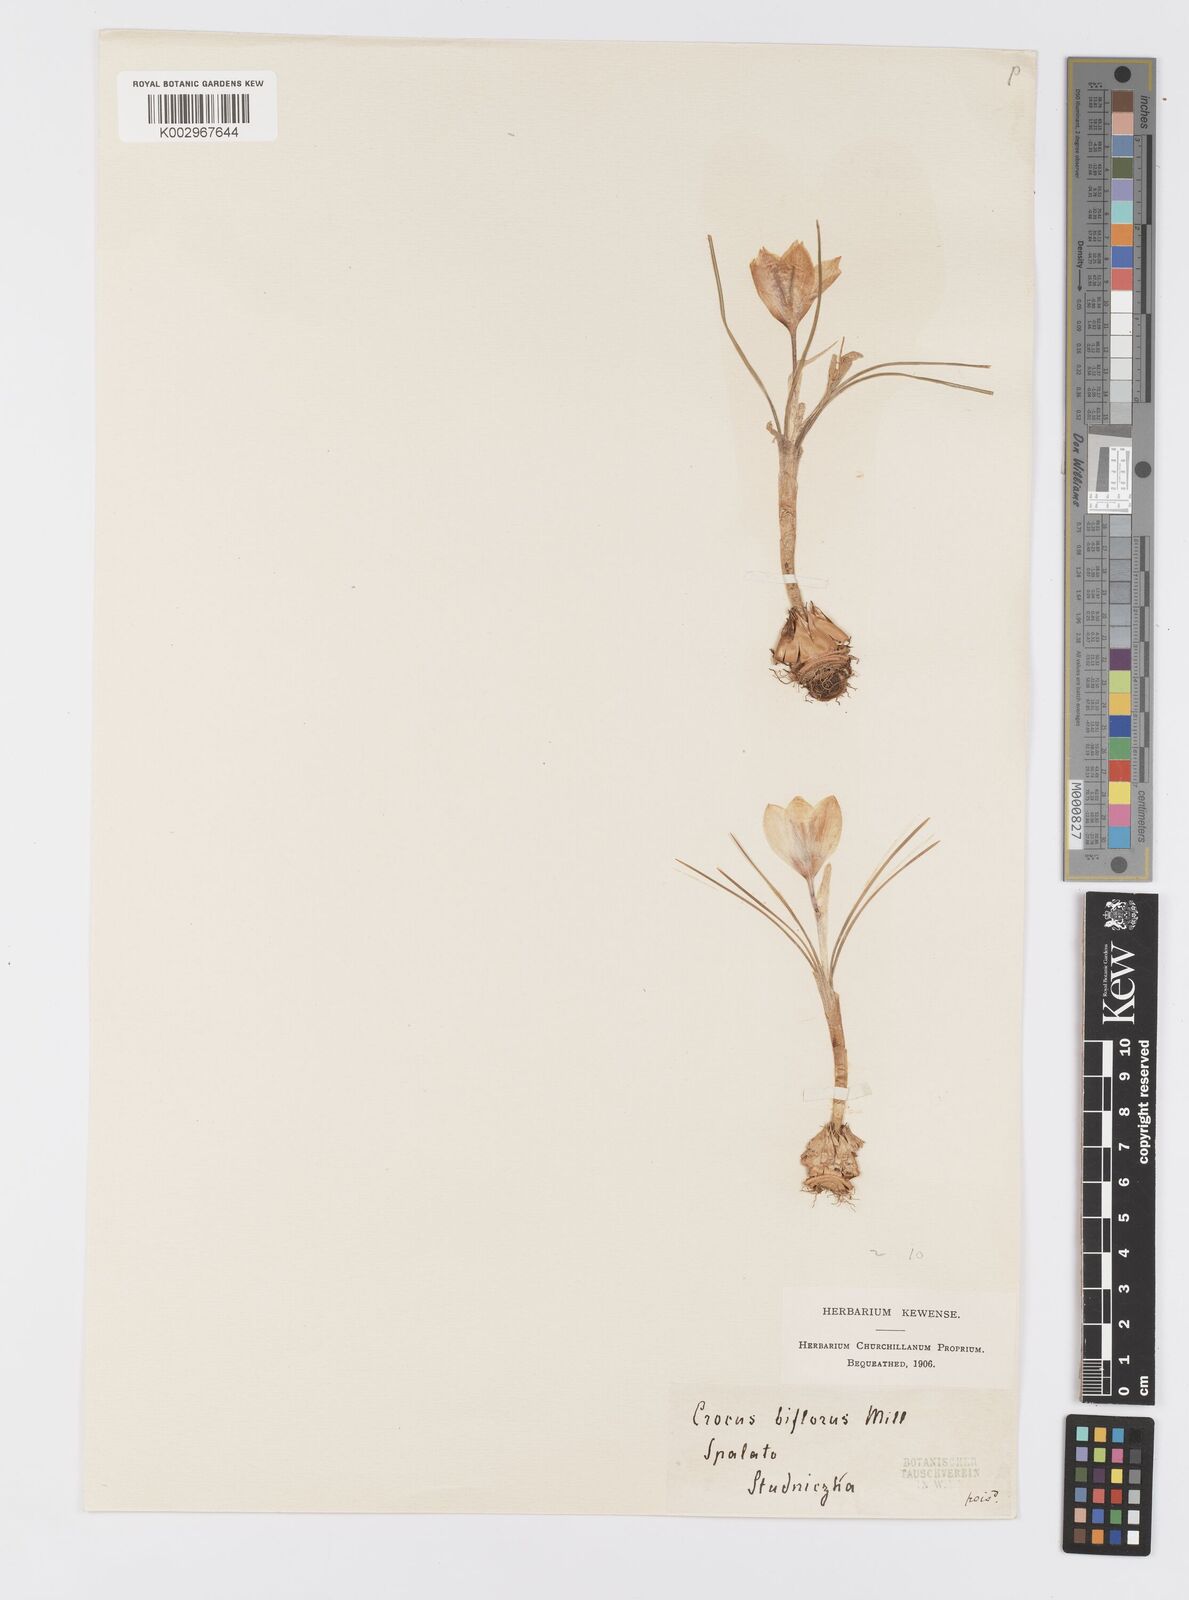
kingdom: Plantae
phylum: Tracheophyta
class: Liliopsida
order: Asparagales
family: Iridaceae
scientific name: Iridaceae
